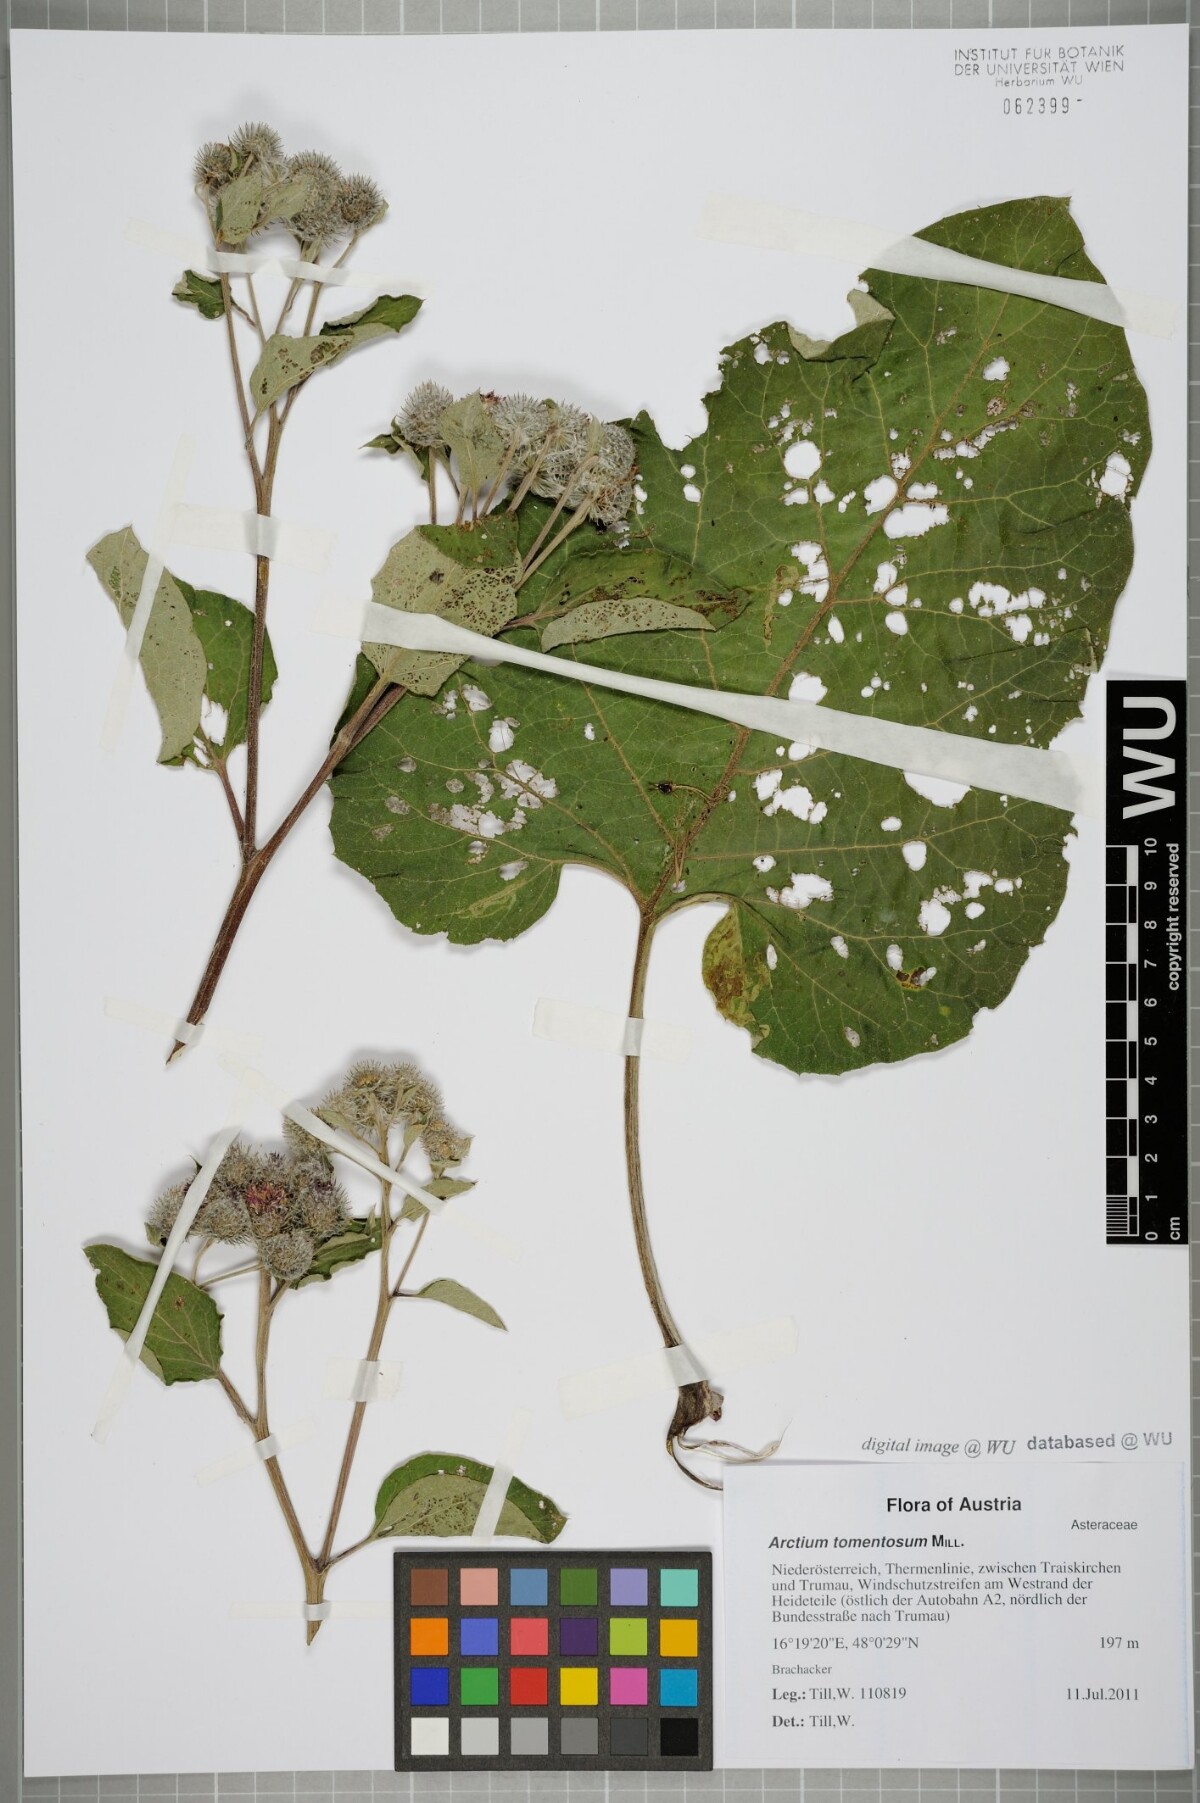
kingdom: Plantae
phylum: Tracheophyta
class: Magnoliopsida
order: Asterales
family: Asteraceae
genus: Arctium
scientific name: Arctium tomentosum
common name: Woolly burdock
